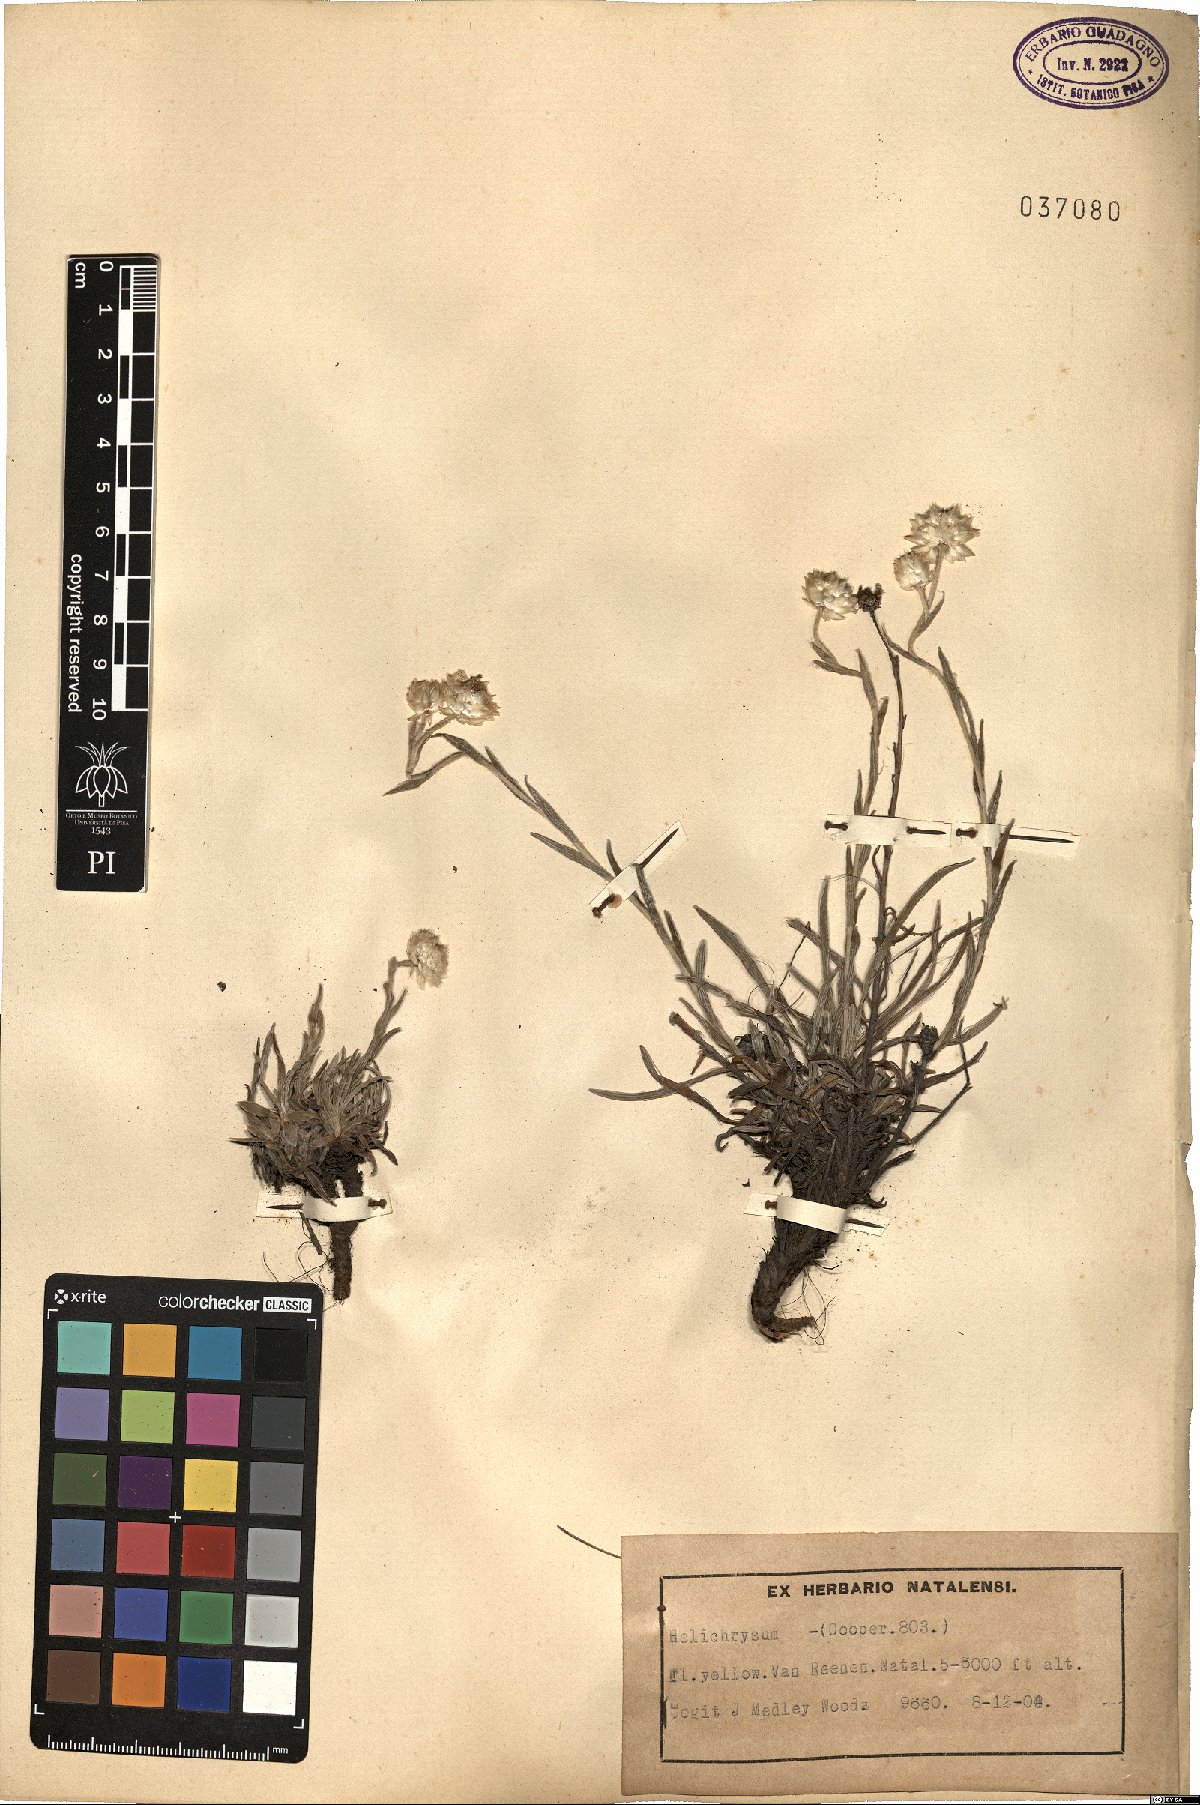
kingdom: Plantae
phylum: Tracheophyta
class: Magnoliopsida
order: Asterales
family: Asteraceae
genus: Helichrysum
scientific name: Helichrysum
